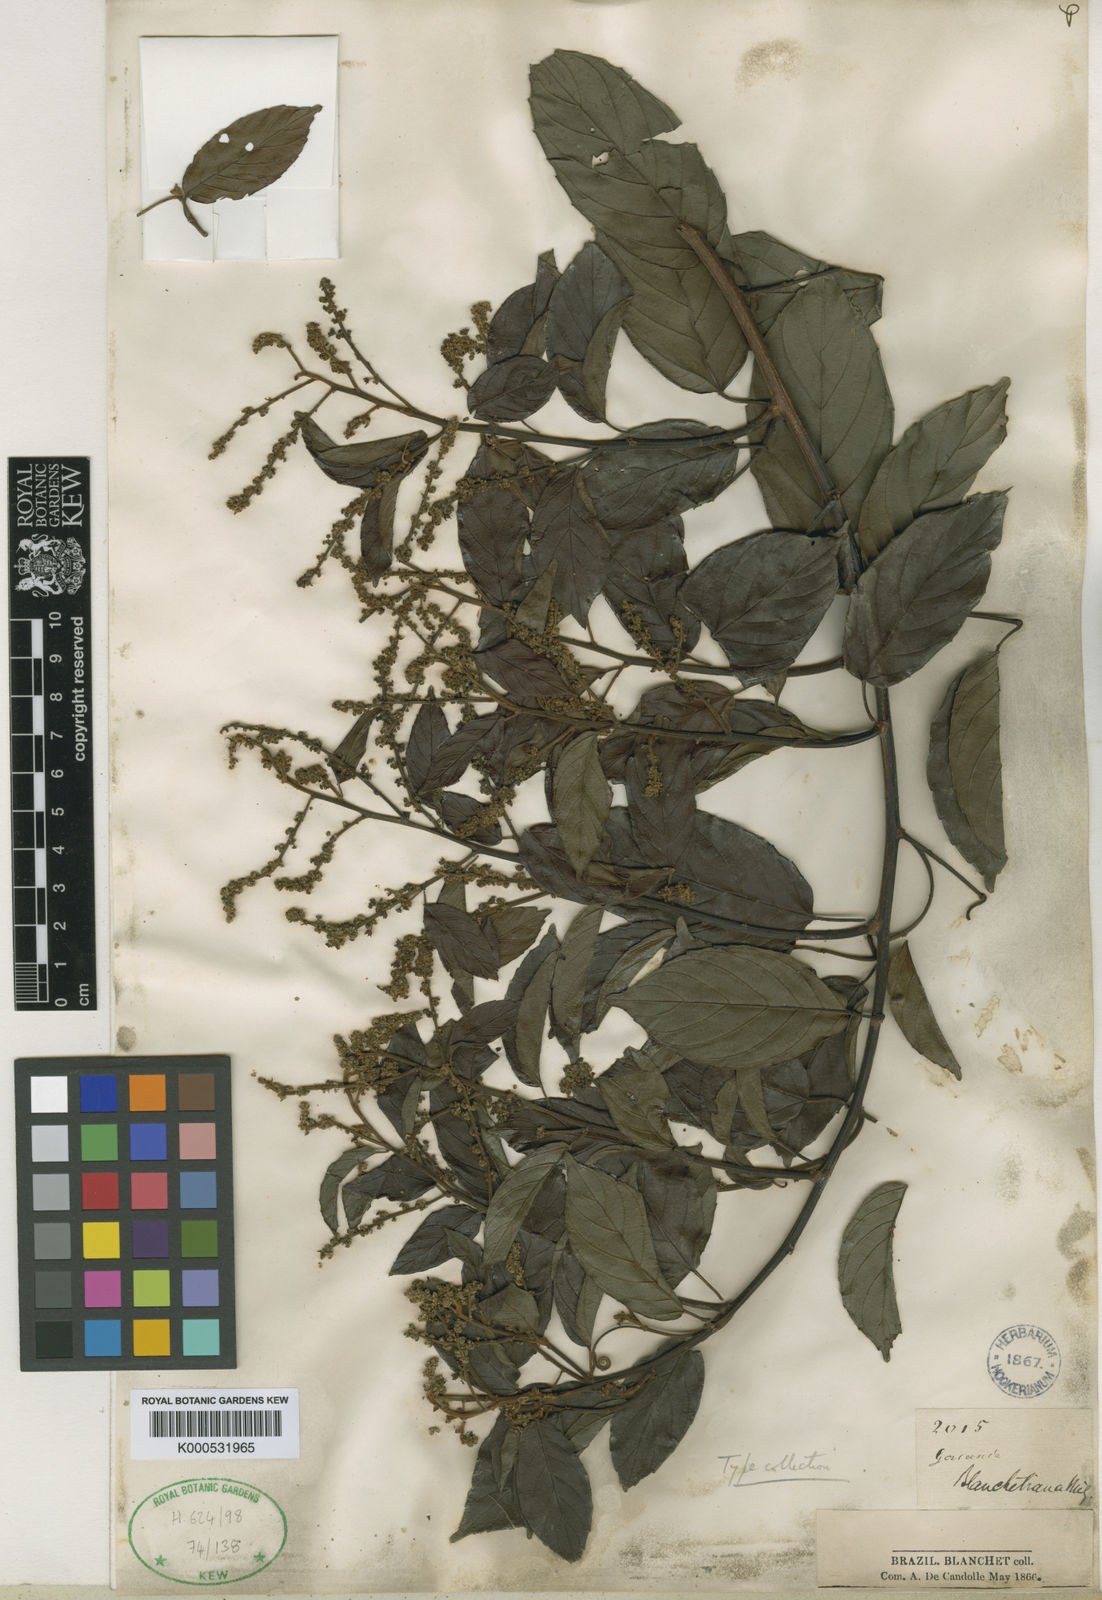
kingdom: Plantae
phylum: Tracheophyta
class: Magnoliopsida
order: Rosales
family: Rhamnaceae
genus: Gouania
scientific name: Gouania blanchetiana
